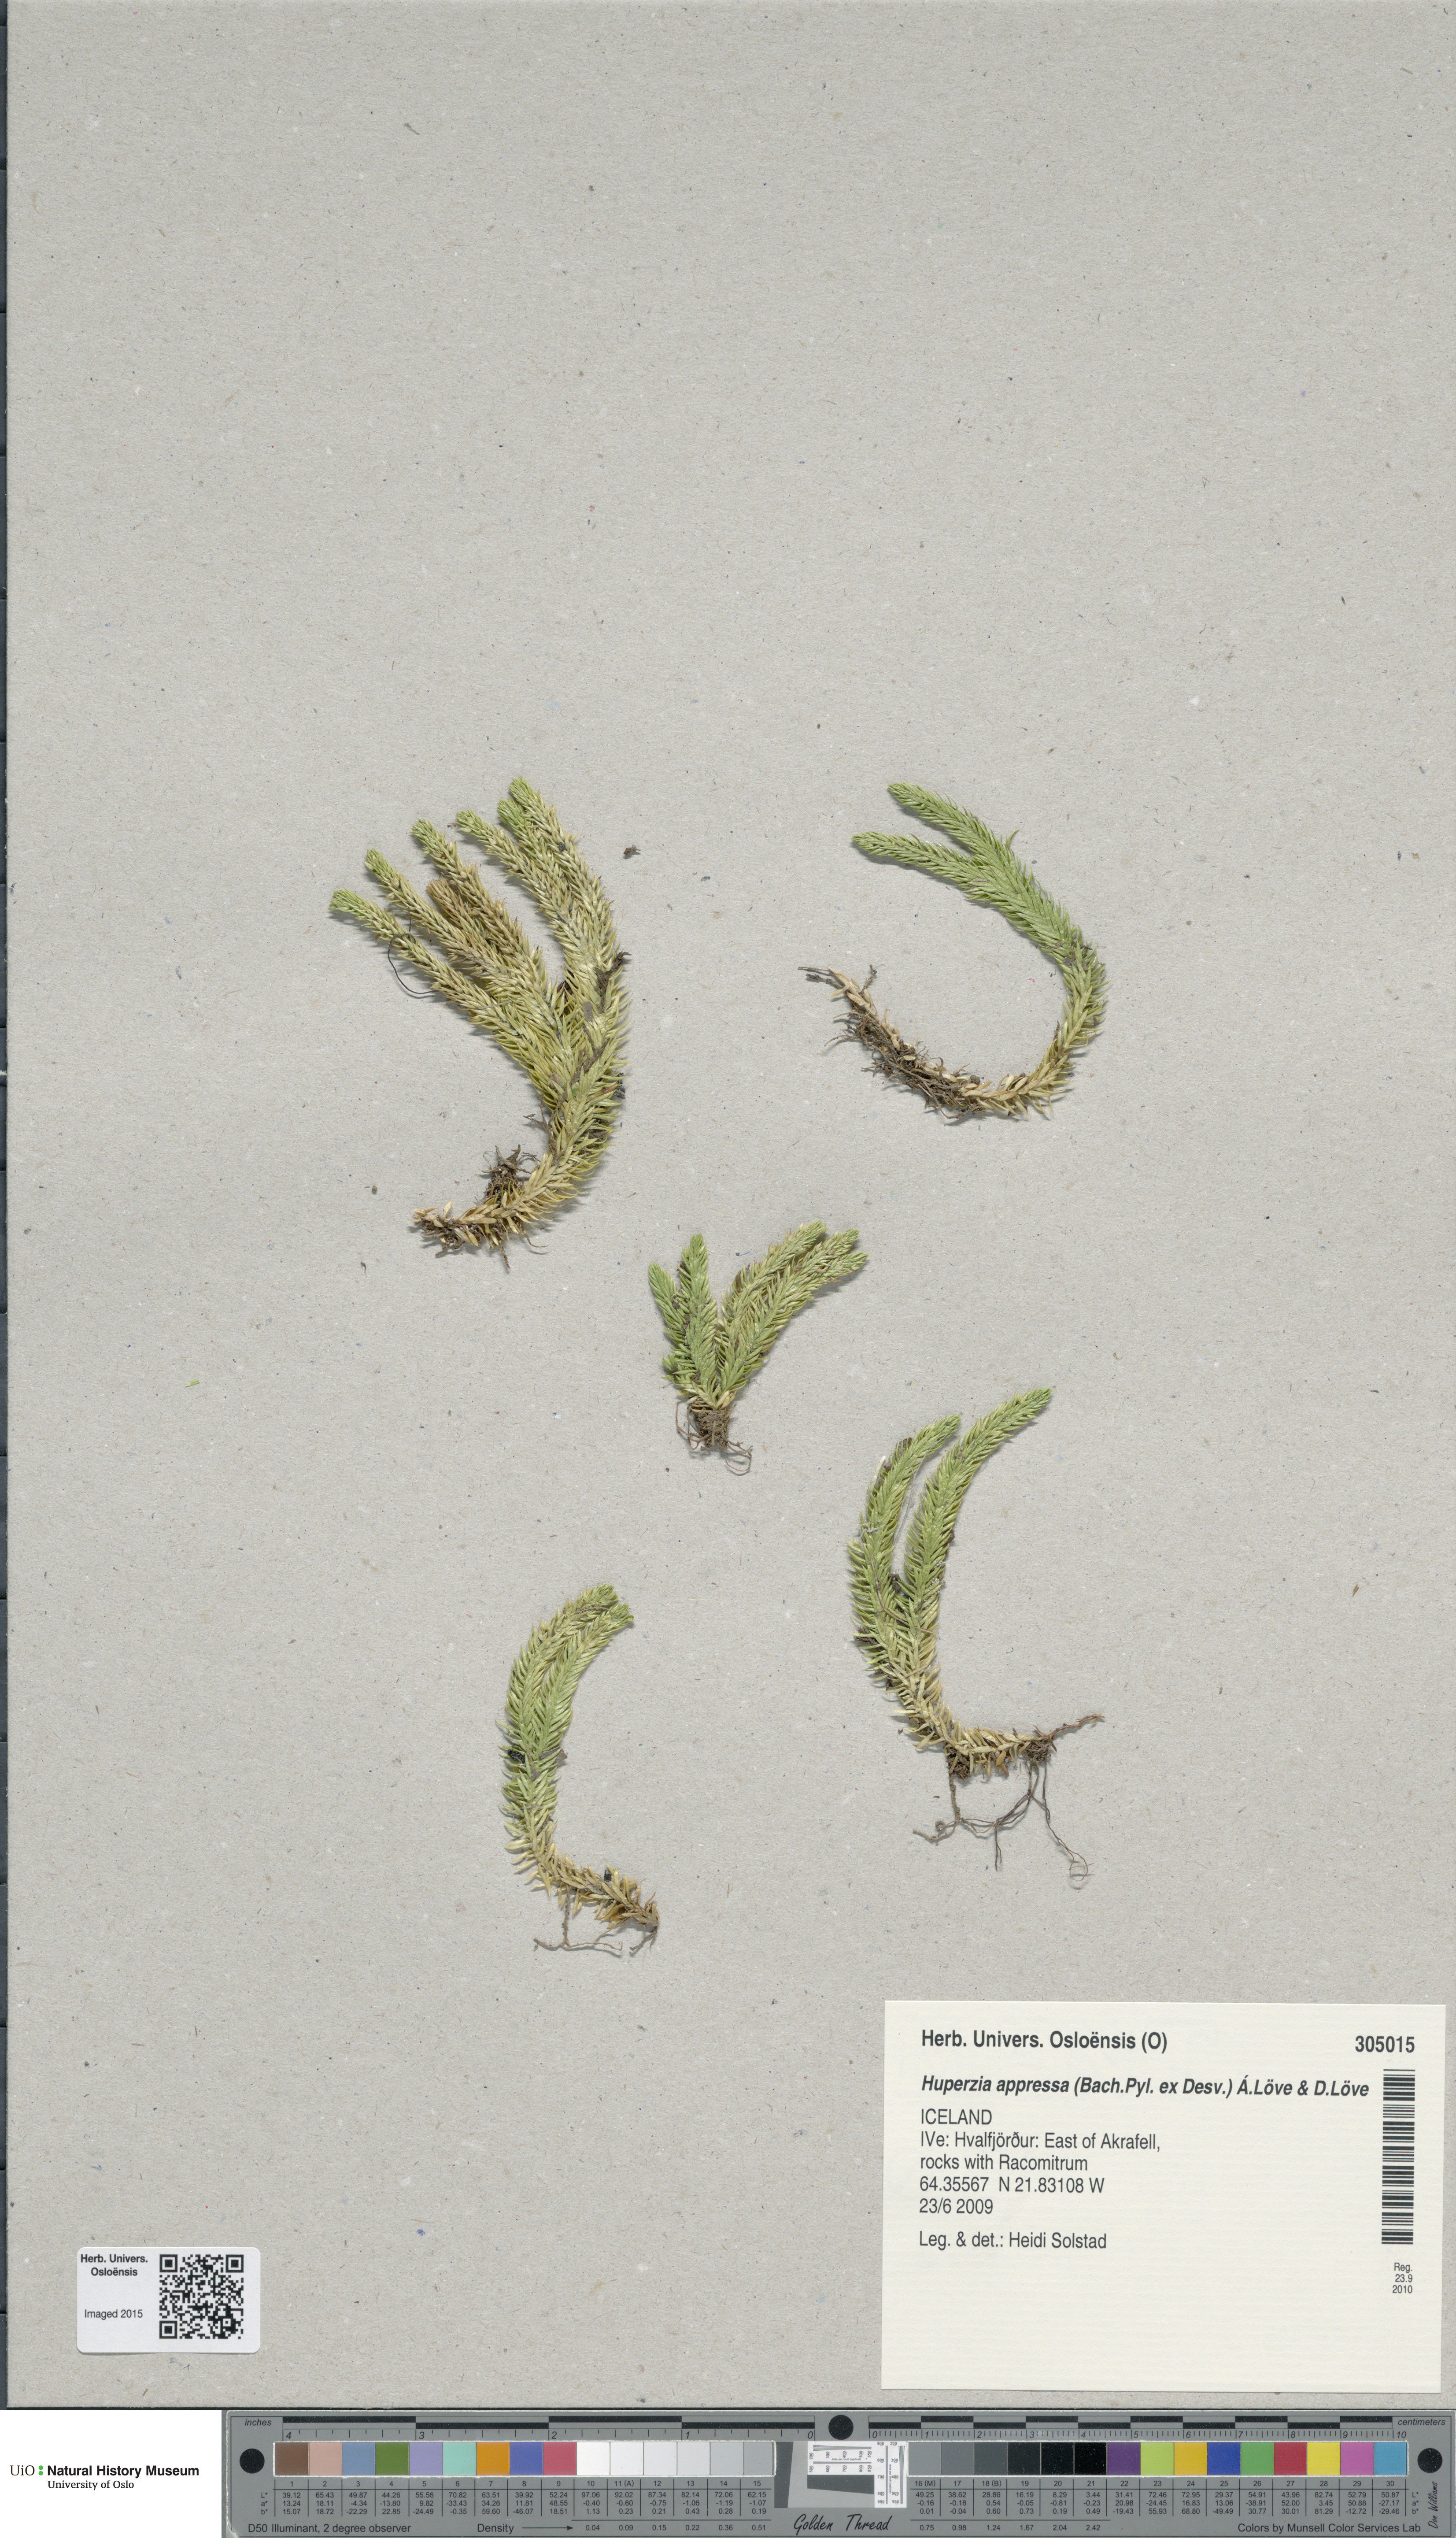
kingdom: Plantae
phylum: Tracheophyta
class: Lycopodiopsida
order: Lycopodiales
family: Lycopodiaceae
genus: Huperzia
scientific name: Huperzia selago
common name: Northern firmoss
